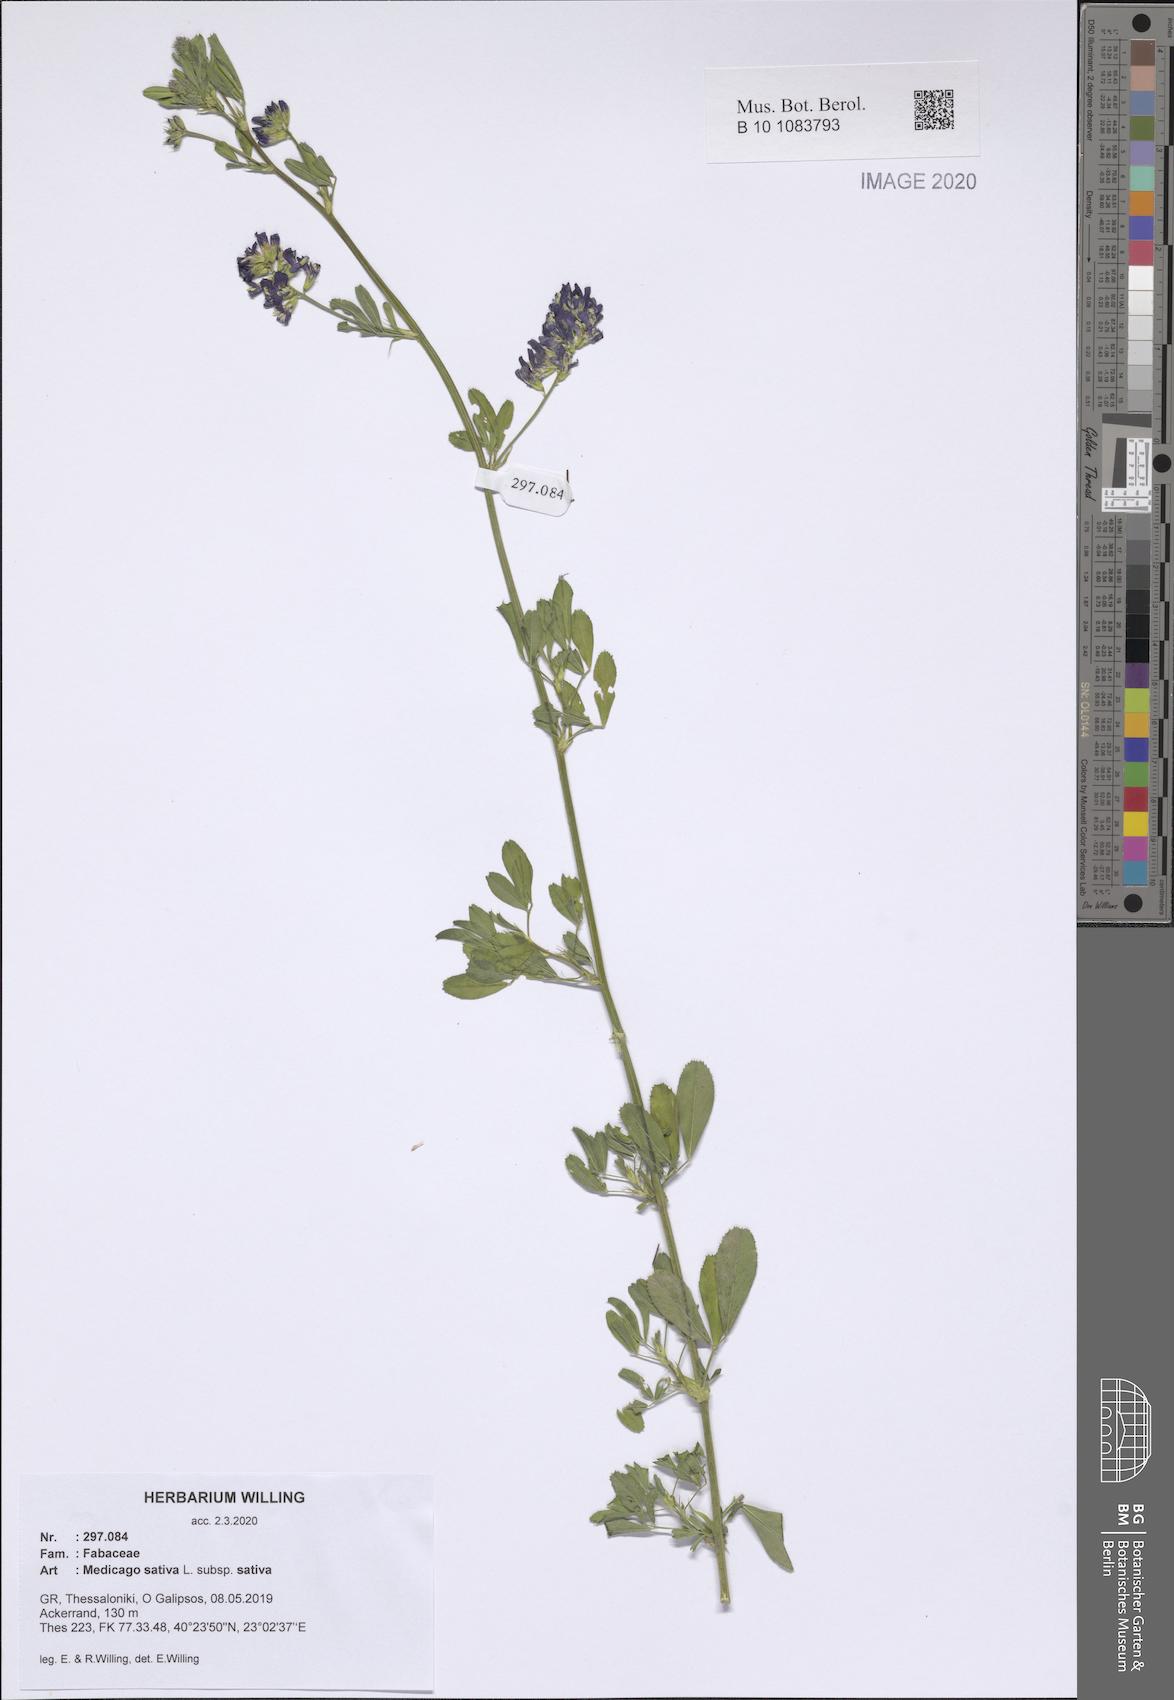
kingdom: Plantae
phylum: Tracheophyta
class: Magnoliopsida
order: Fabales
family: Fabaceae
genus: Medicago
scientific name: Medicago sativa
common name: Alfalfa
